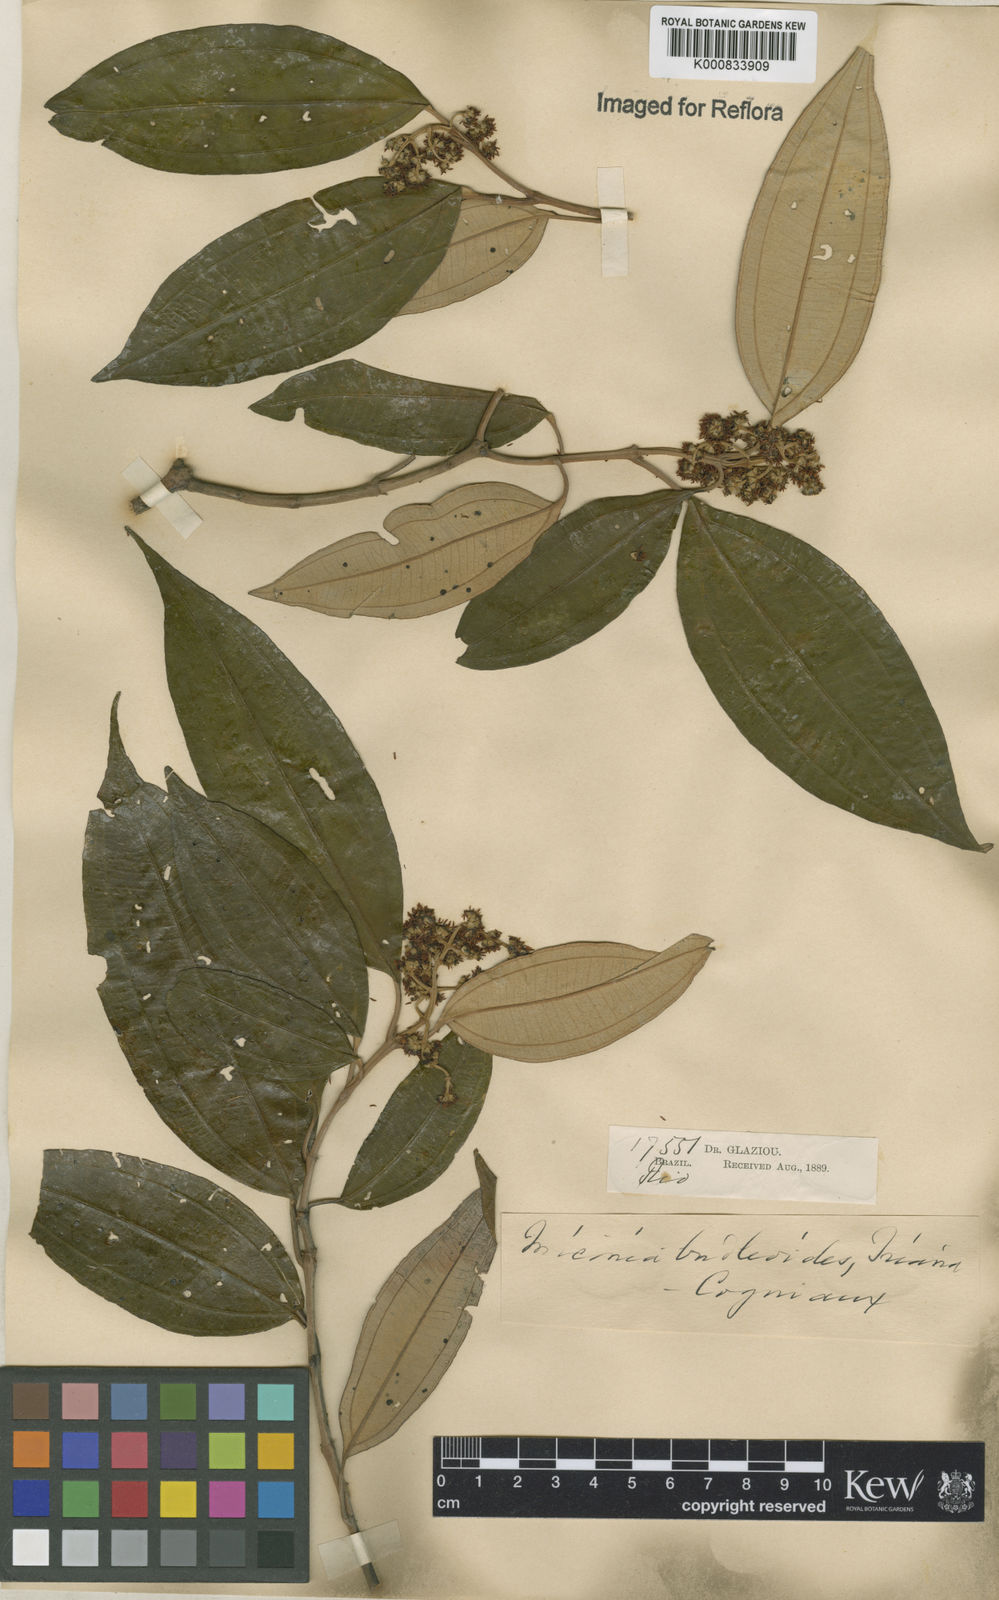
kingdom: Plantae
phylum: Tracheophyta
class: Magnoliopsida
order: Myrtales
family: Melastomataceae
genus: Miconia
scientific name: Miconia buddlejoides
